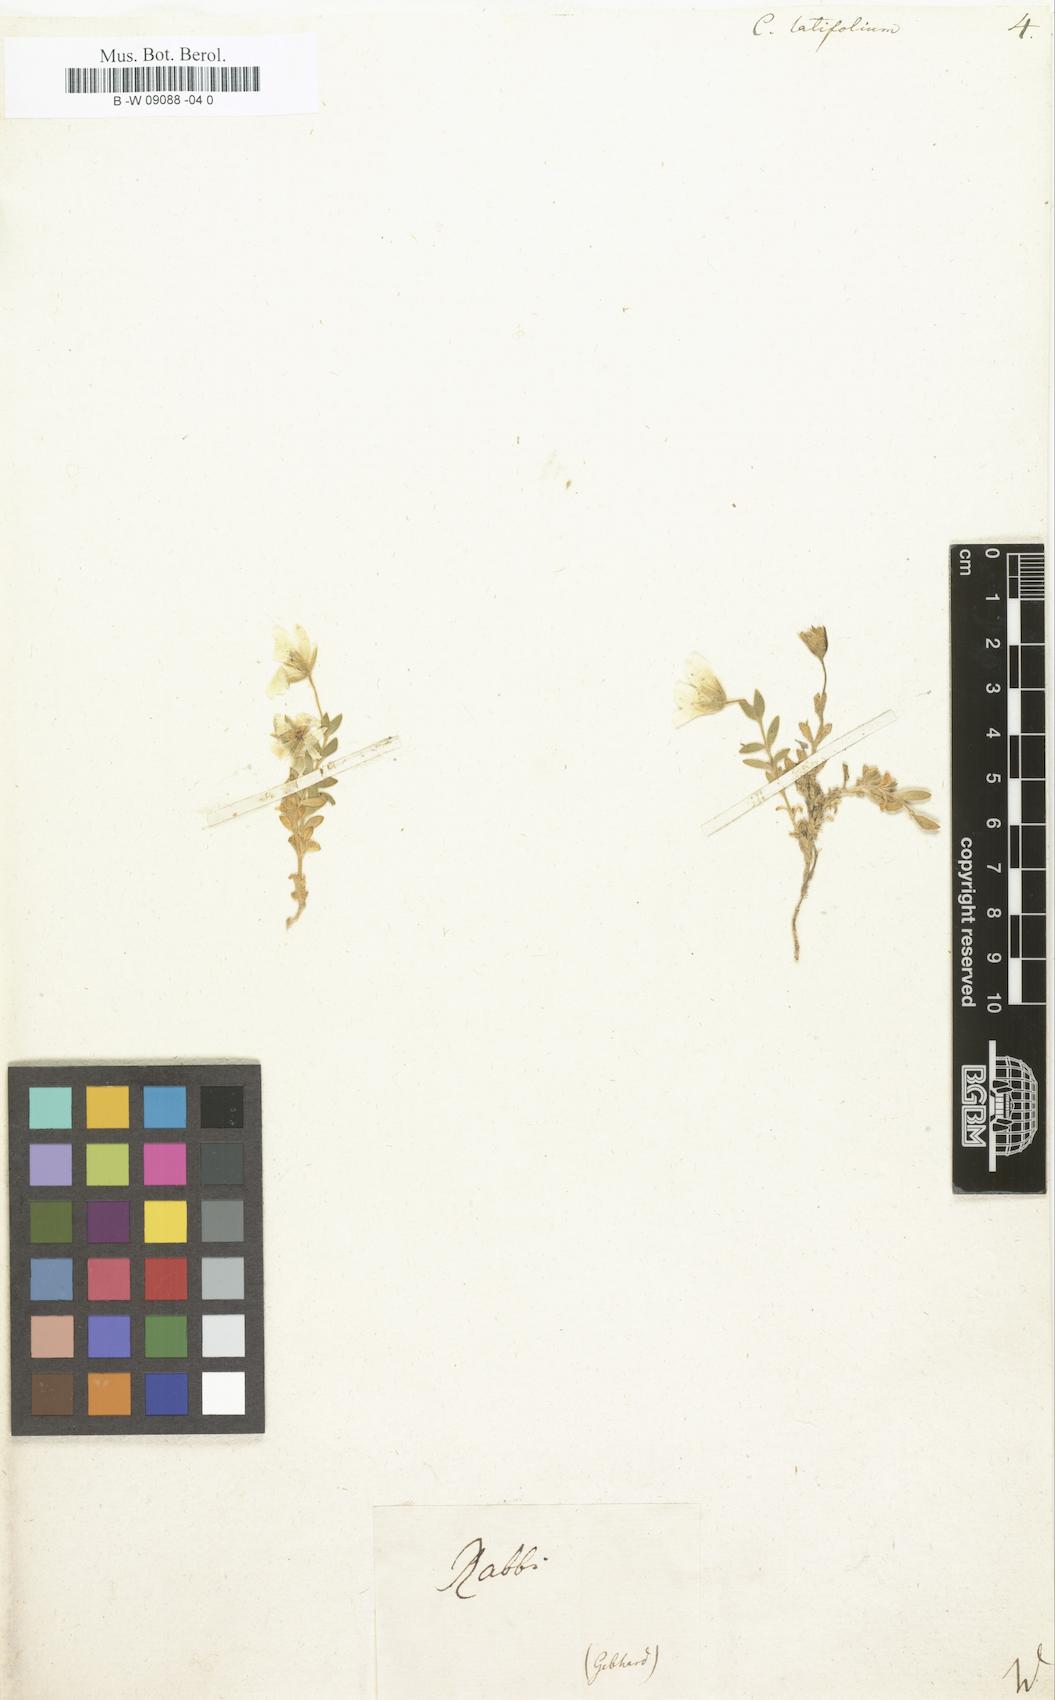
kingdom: Plantae
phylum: Tracheophyta
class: Magnoliopsida
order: Caryophyllales
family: Caryophyllaceae
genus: Cerastium
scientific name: Cerastium latifolium
